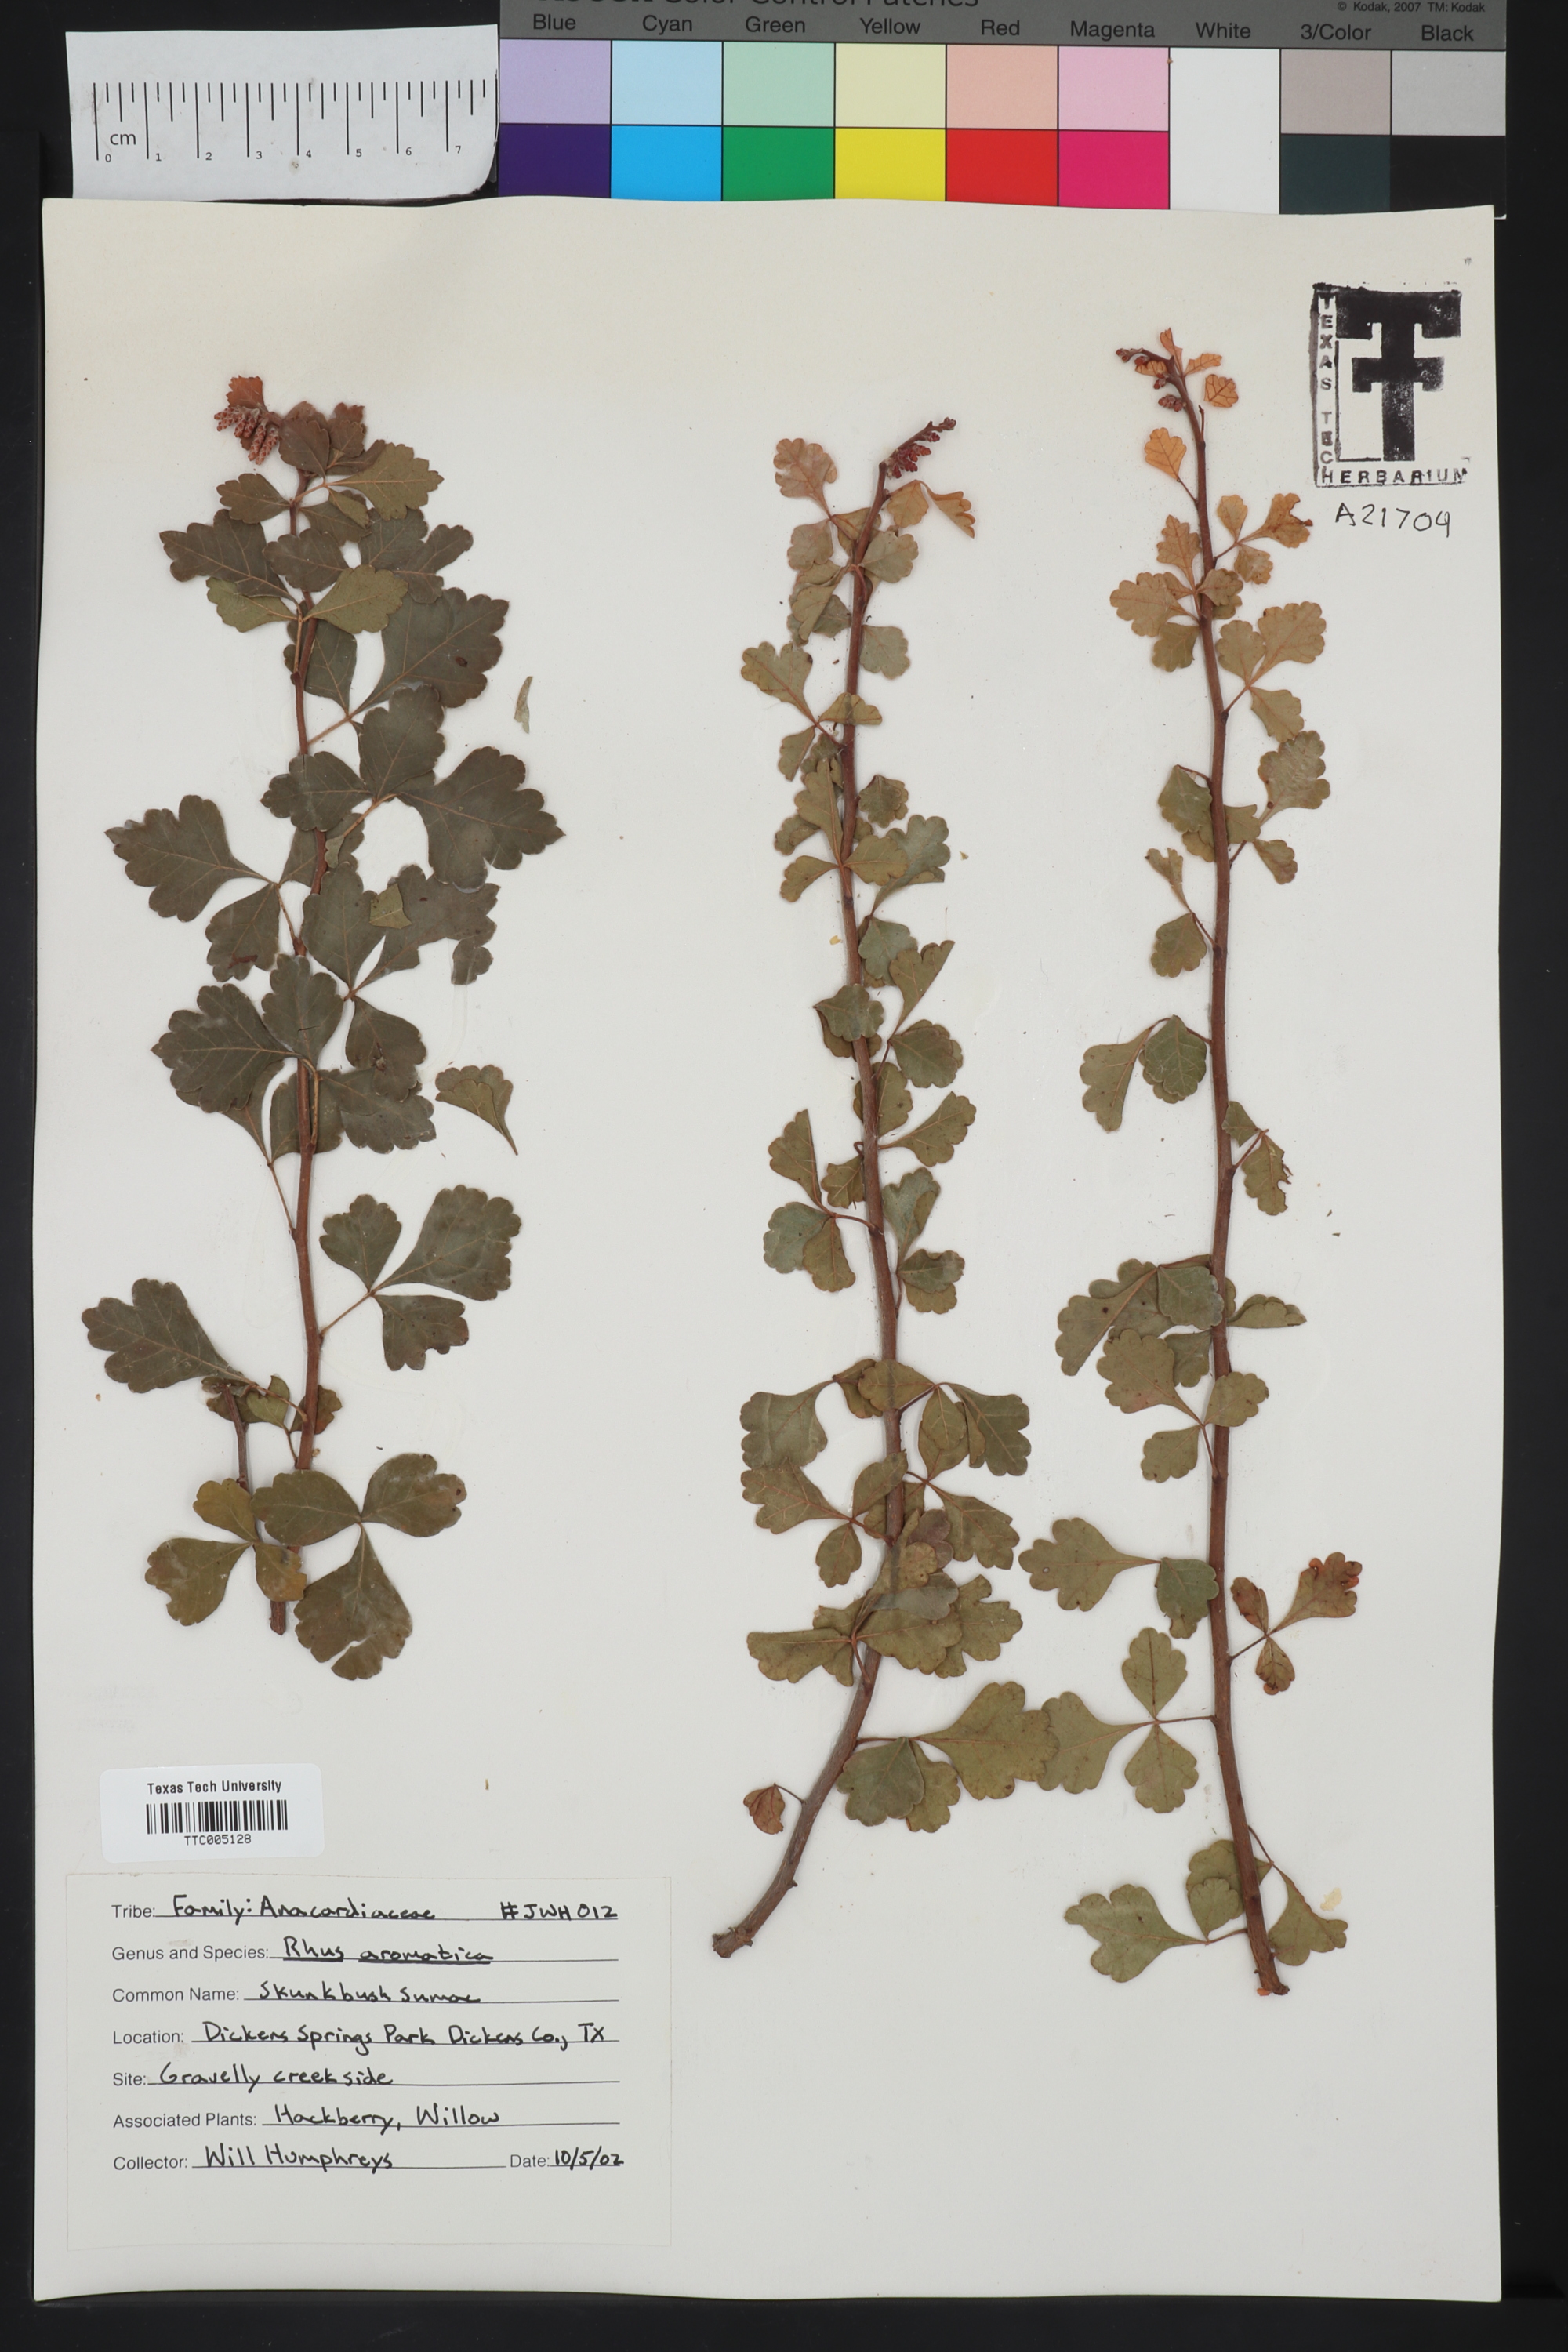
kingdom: Plantae
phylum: Tracheophyta
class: Magnoliopsida
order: Sapindales
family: Anacardiaceae
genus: Rhus
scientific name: Rhus aromatica
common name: Aromatic sumac
